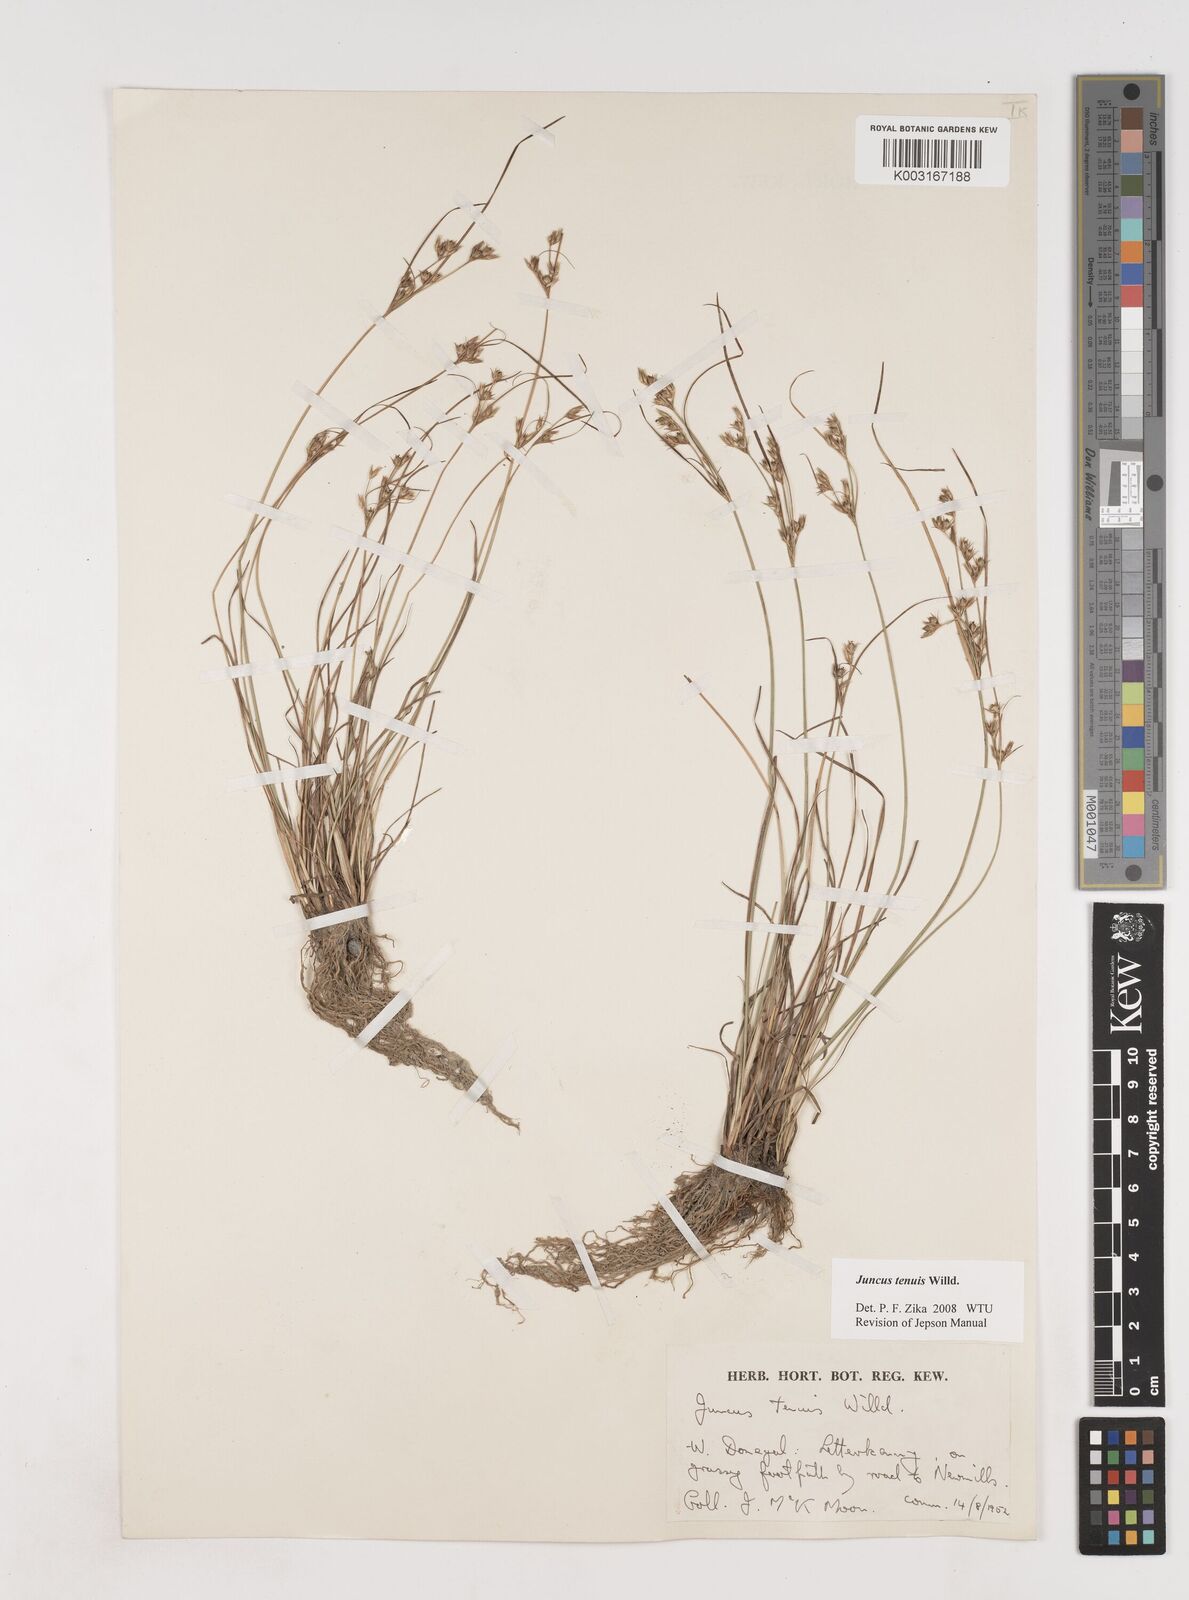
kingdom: Plantae
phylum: Tracheophyta
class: Liliopsida
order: Poales
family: Juncaceae
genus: Juncus
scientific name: Juncus tenuis
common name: Slender rush
